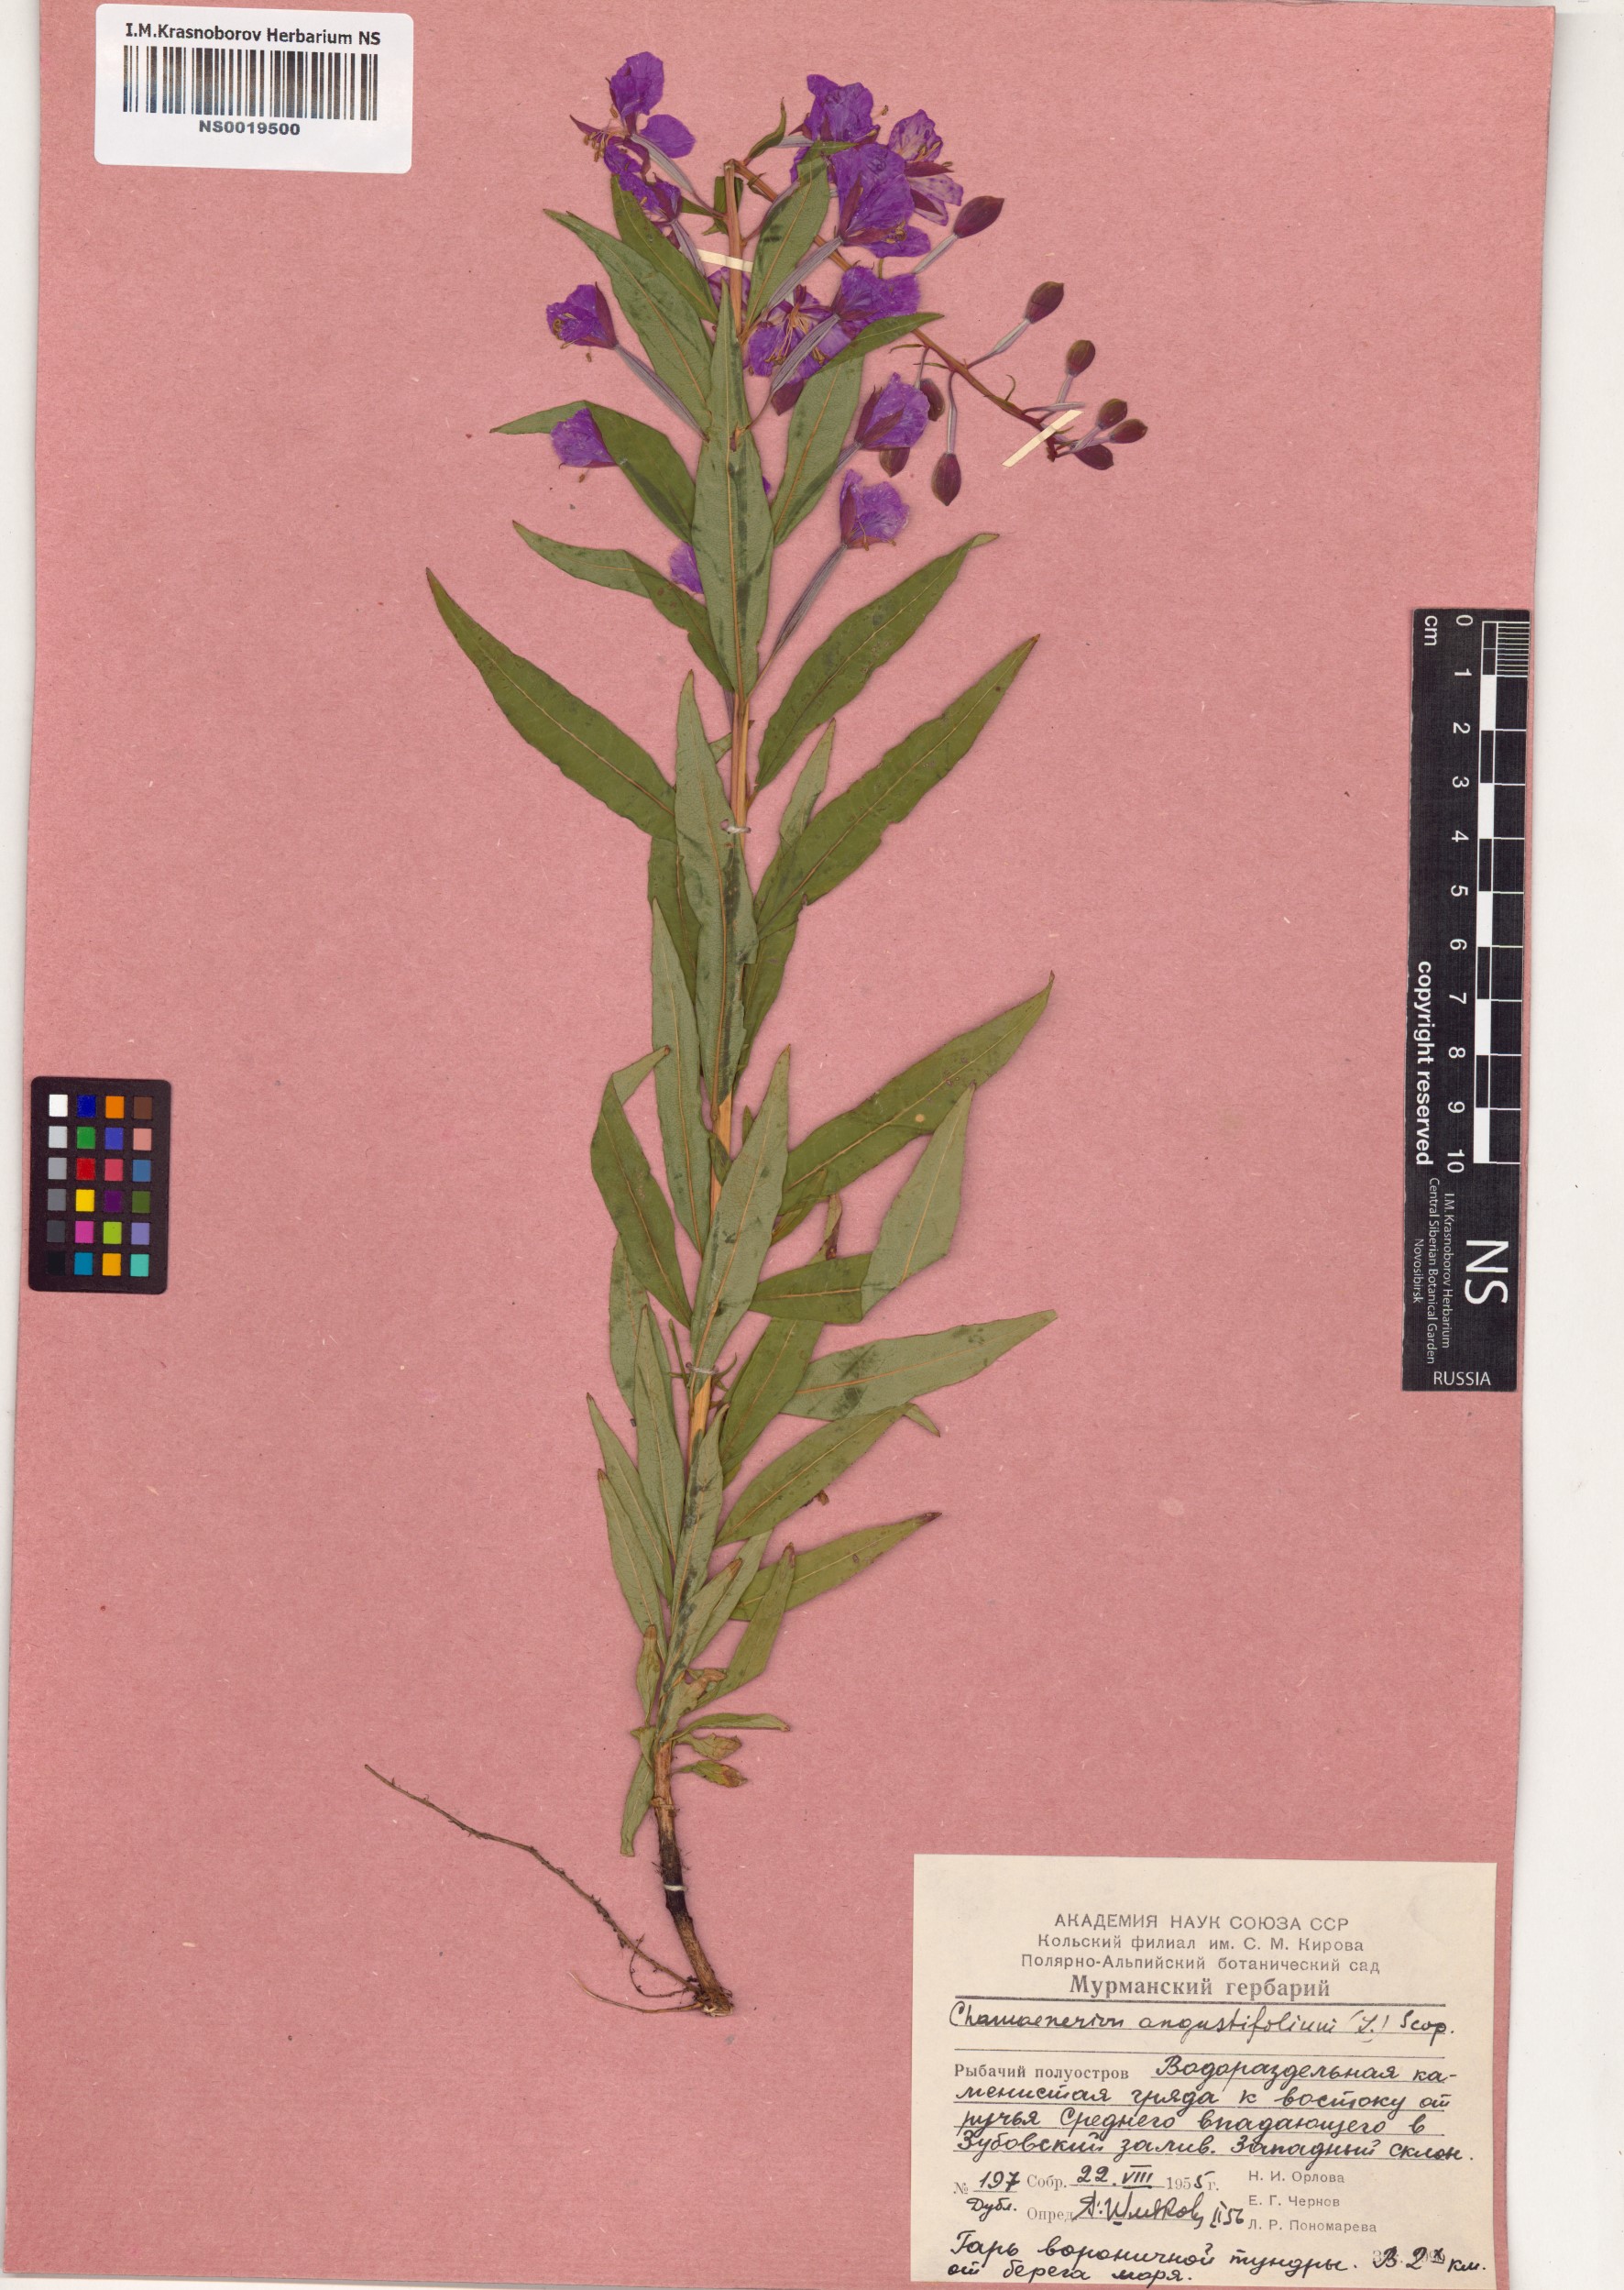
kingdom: Plantae
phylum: Tracheophyta
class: Magnoliopsida
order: Myrtales
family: Onagraceae
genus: Chamaenerion
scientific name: Chamaenerion angustifolium
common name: Fireweed
